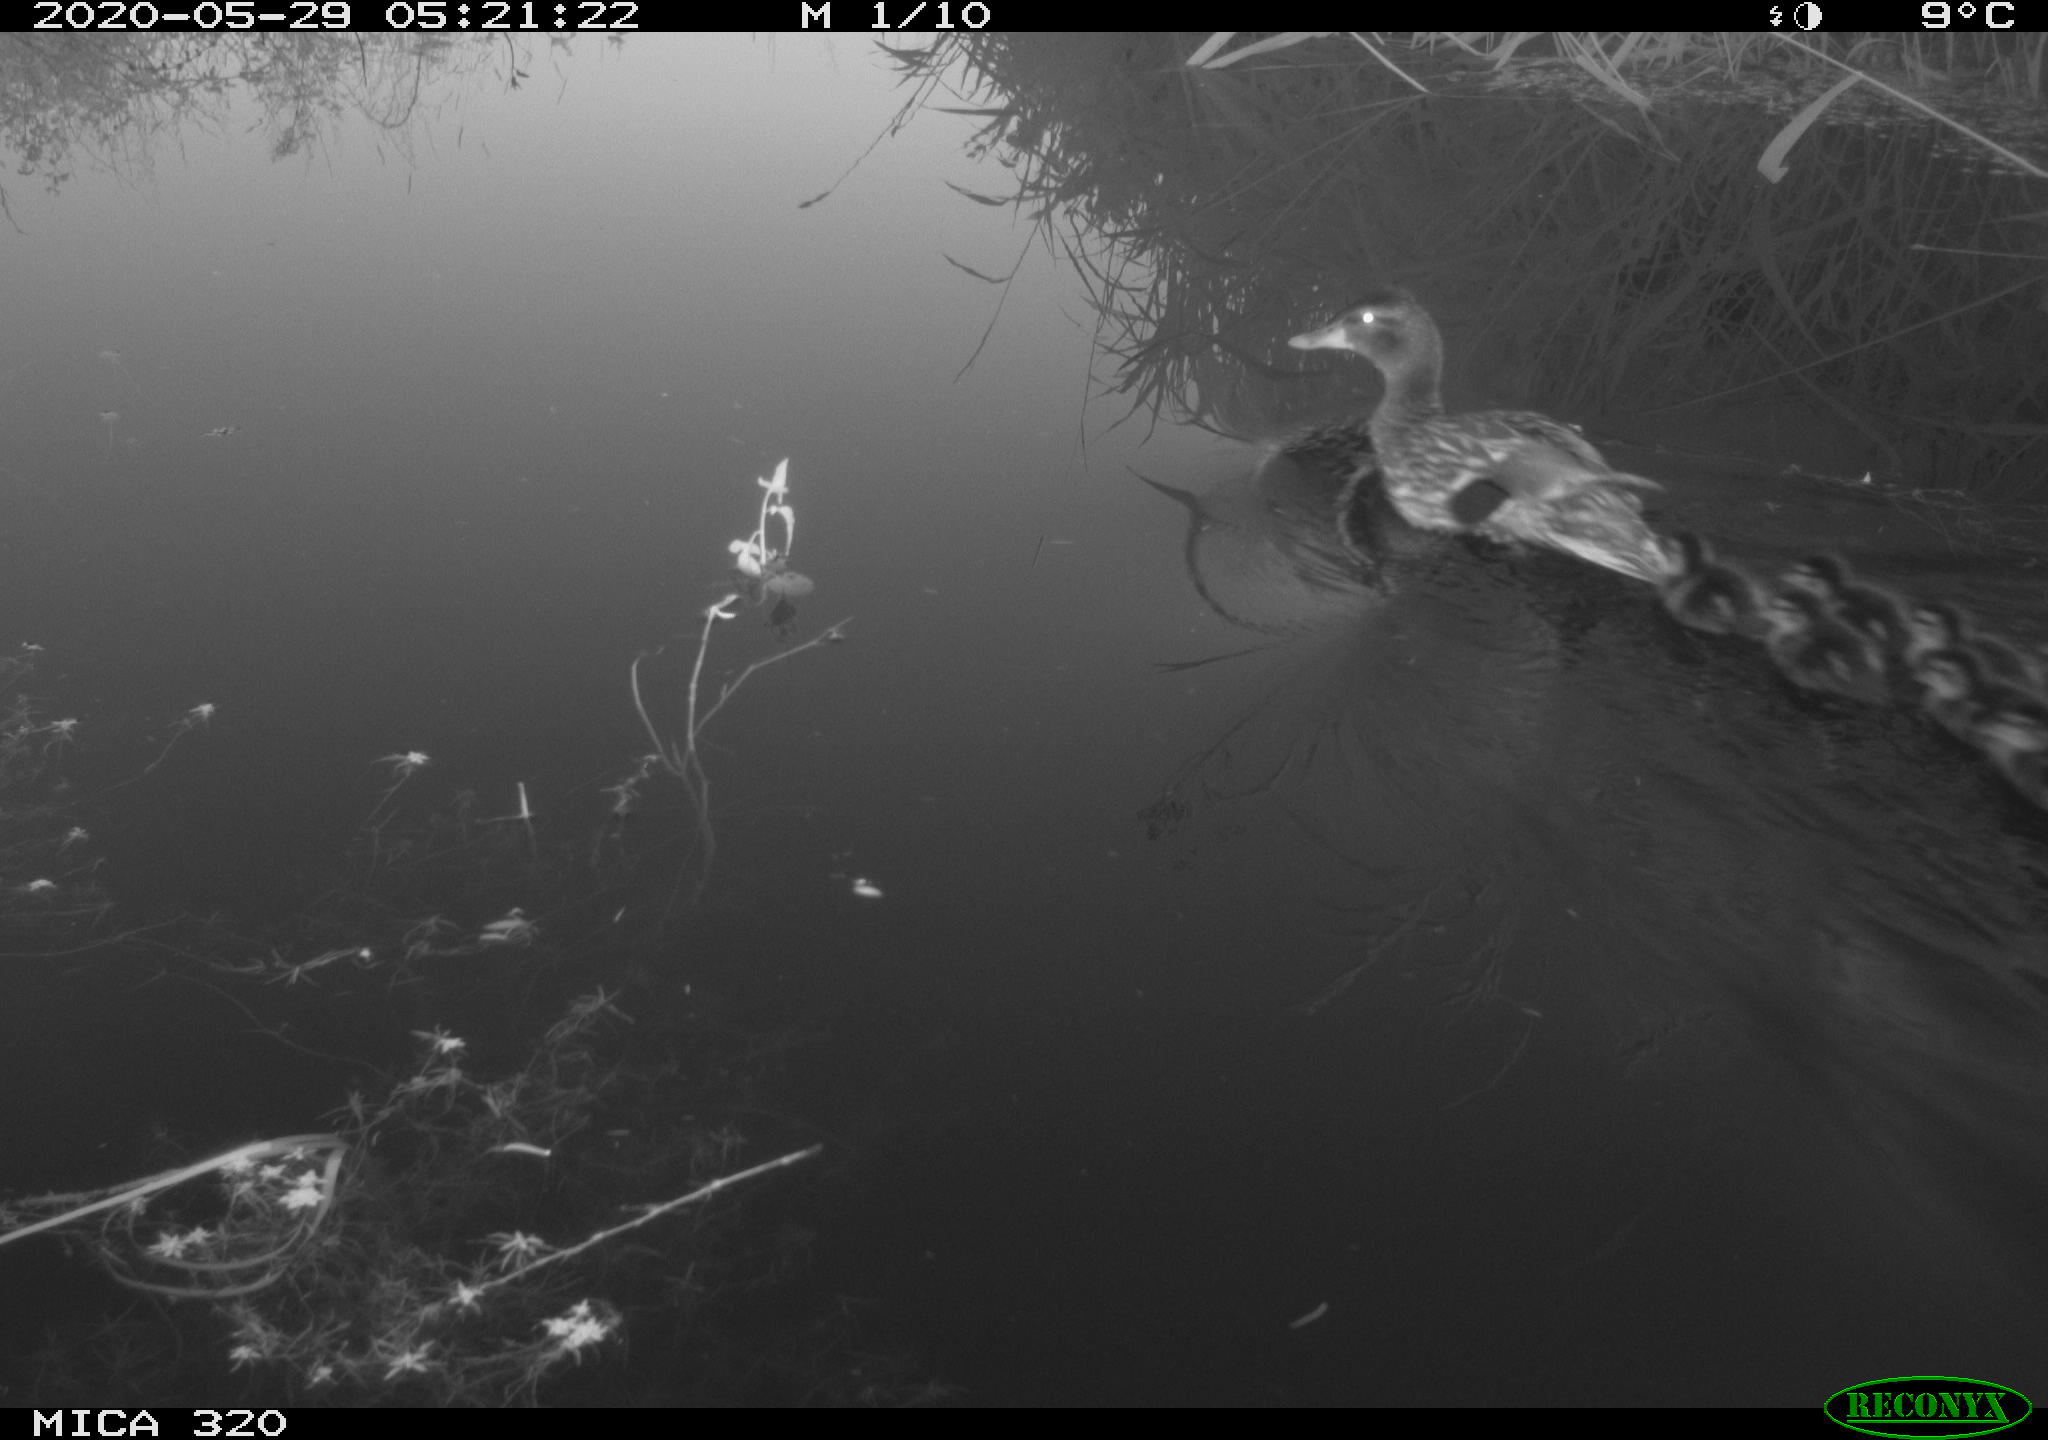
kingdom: Animalia
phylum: Chordata
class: Aves
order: Anseriformes
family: Anatidae
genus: Anas
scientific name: Anas platyrhynchos
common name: Mallard
